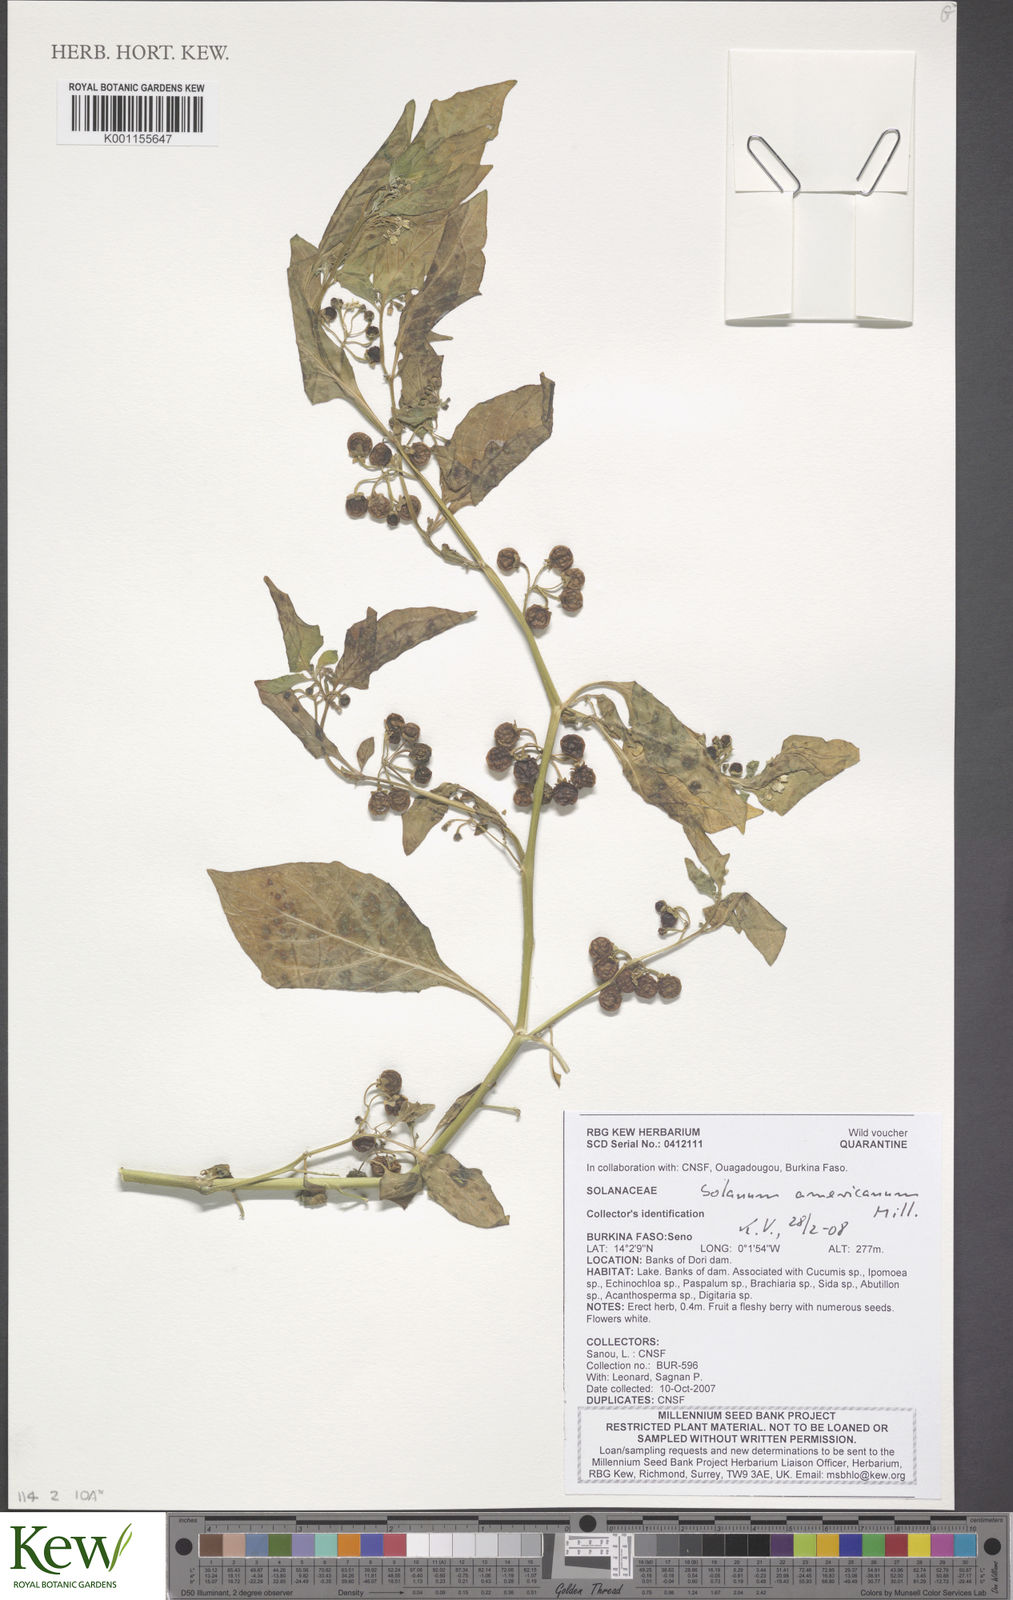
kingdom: Plantae
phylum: Tracheophyta
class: Magnoliopsida
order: Solanales
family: Solanaceae
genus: Solanum
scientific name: Solanum scabrum
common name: Garden-huckleberry
